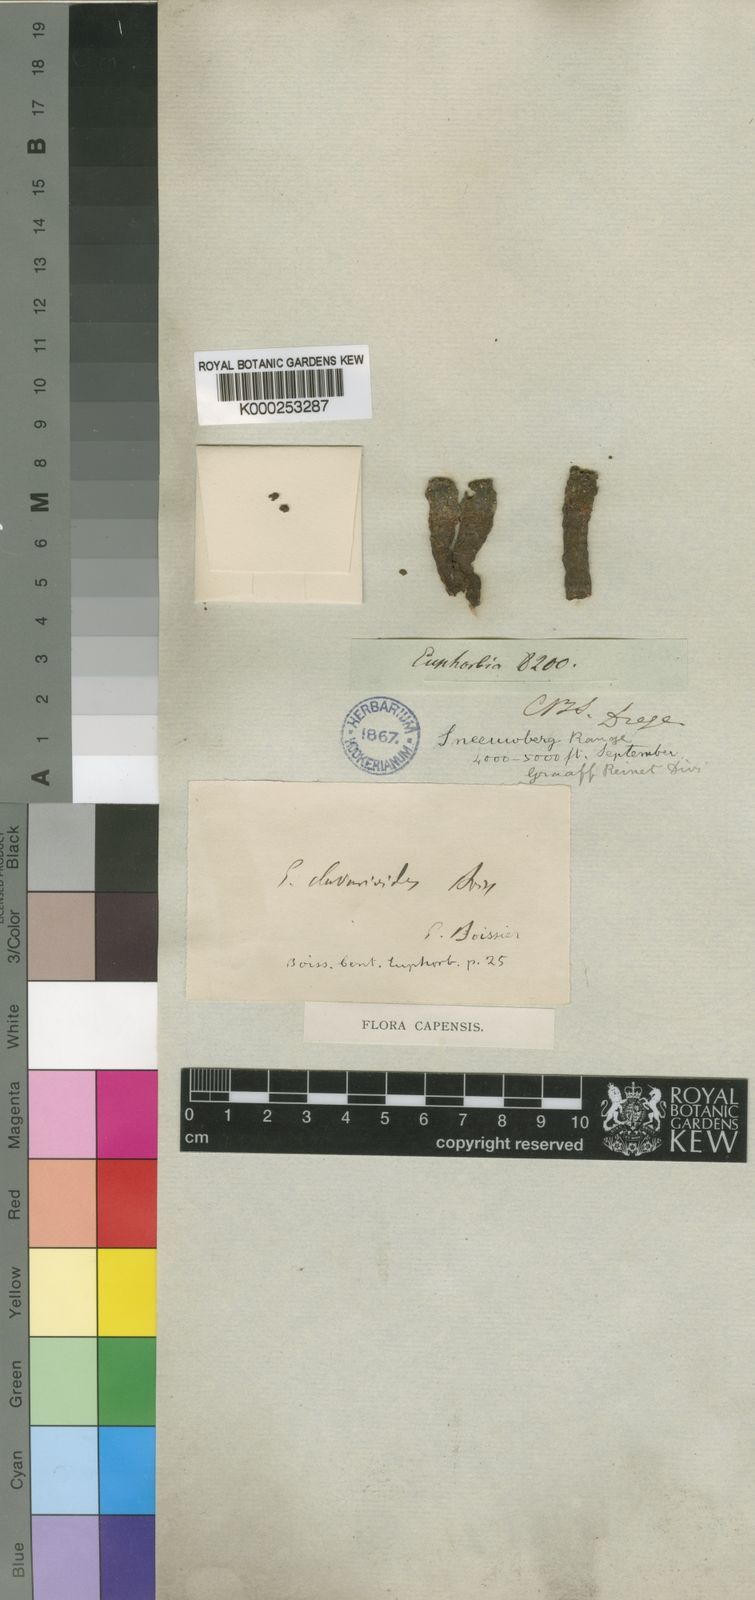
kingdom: Plantae
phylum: Tracheophyta
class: Magnoliopsida
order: Malpighiales
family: Euphorbiaceae
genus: Euphorbia
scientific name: Euphorbia clavarioides
